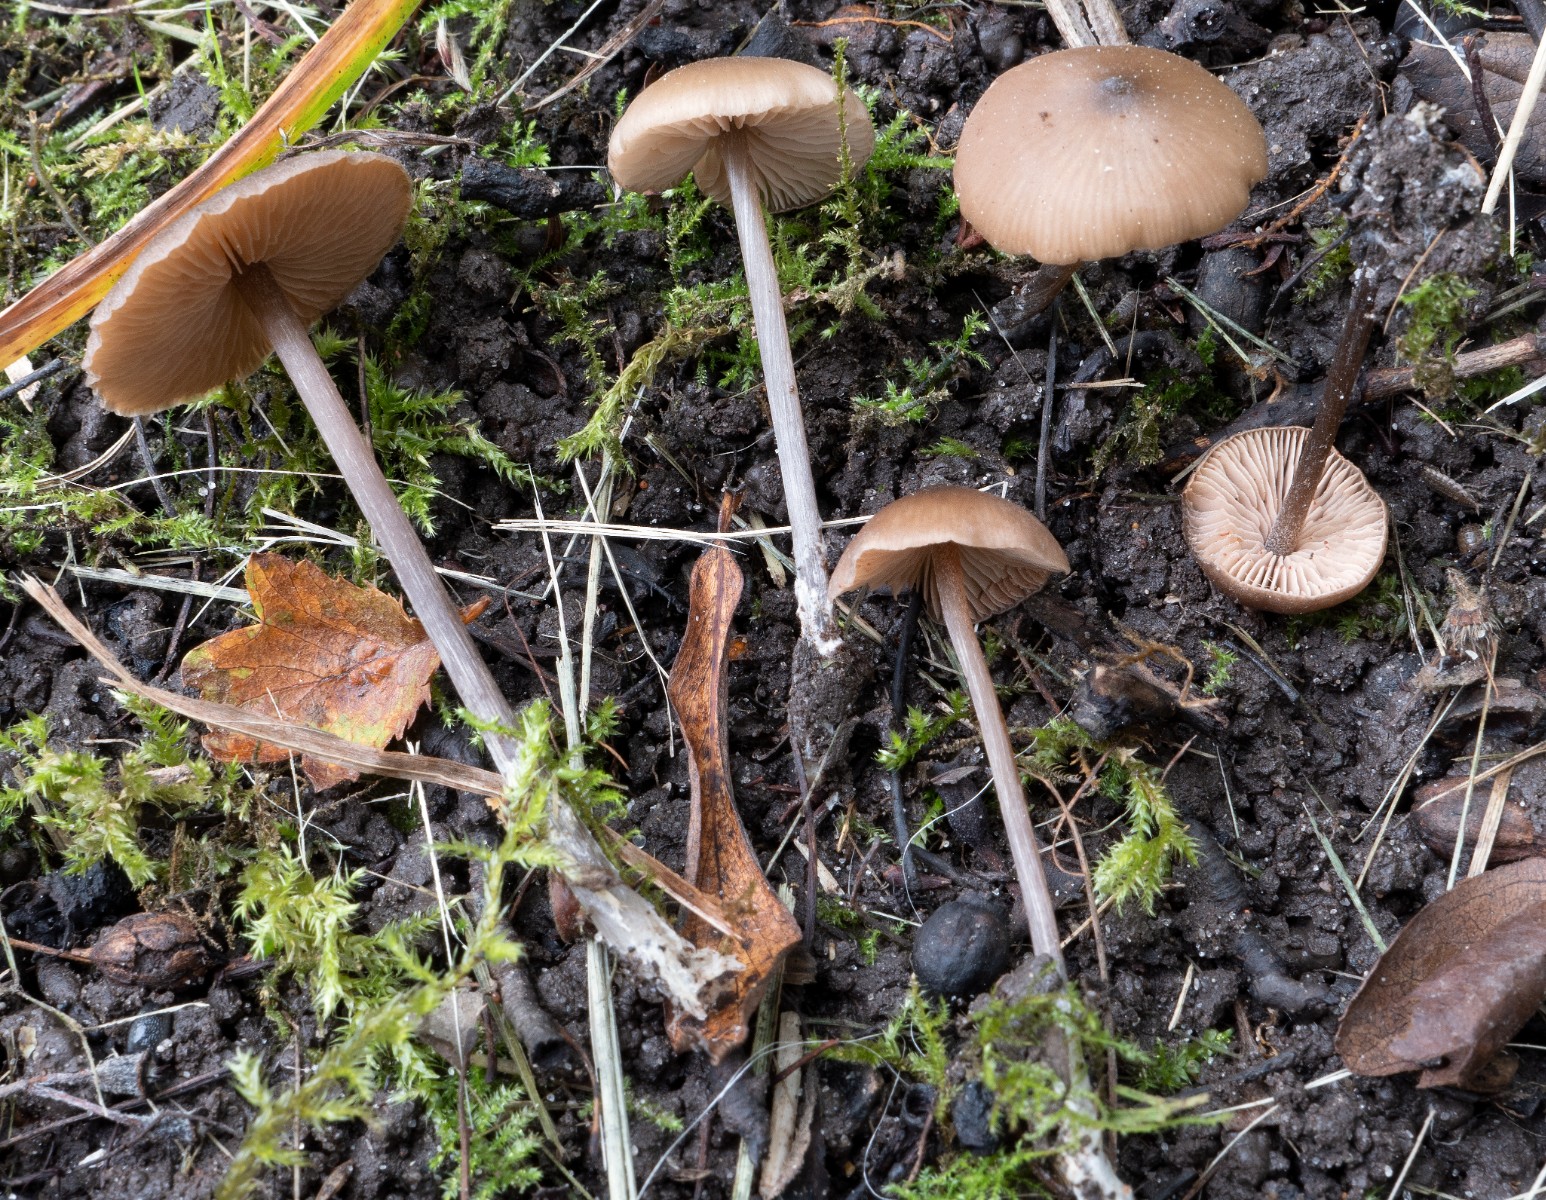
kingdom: Fungi
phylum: Basidiomycota
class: Agaricomycetes
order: Agaricales
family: Entolomataceae
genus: Entoloma
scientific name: Entoloma hebes
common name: krat-rødblad
